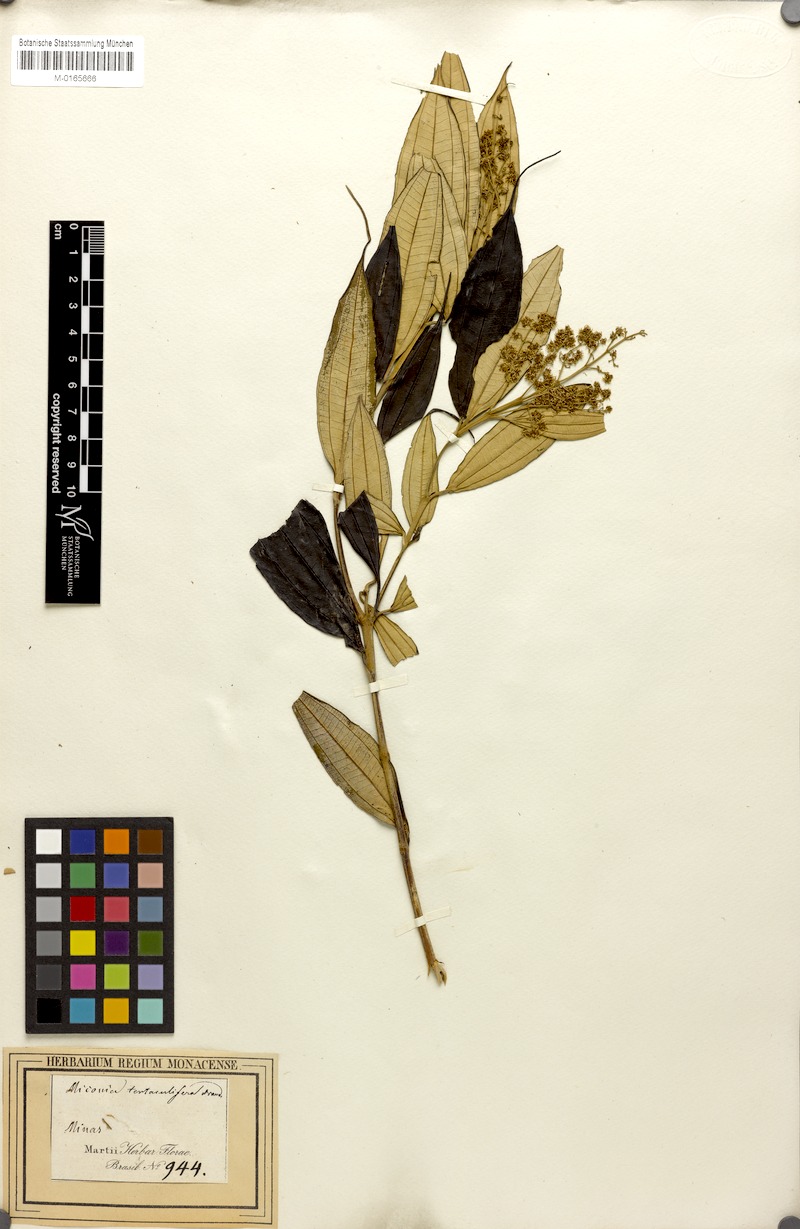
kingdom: Plantae
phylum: Tracheophyta
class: Magnoliopsida
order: Myrtales
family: Melastomataceae
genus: Miconia
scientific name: Miconia tentaculifera
